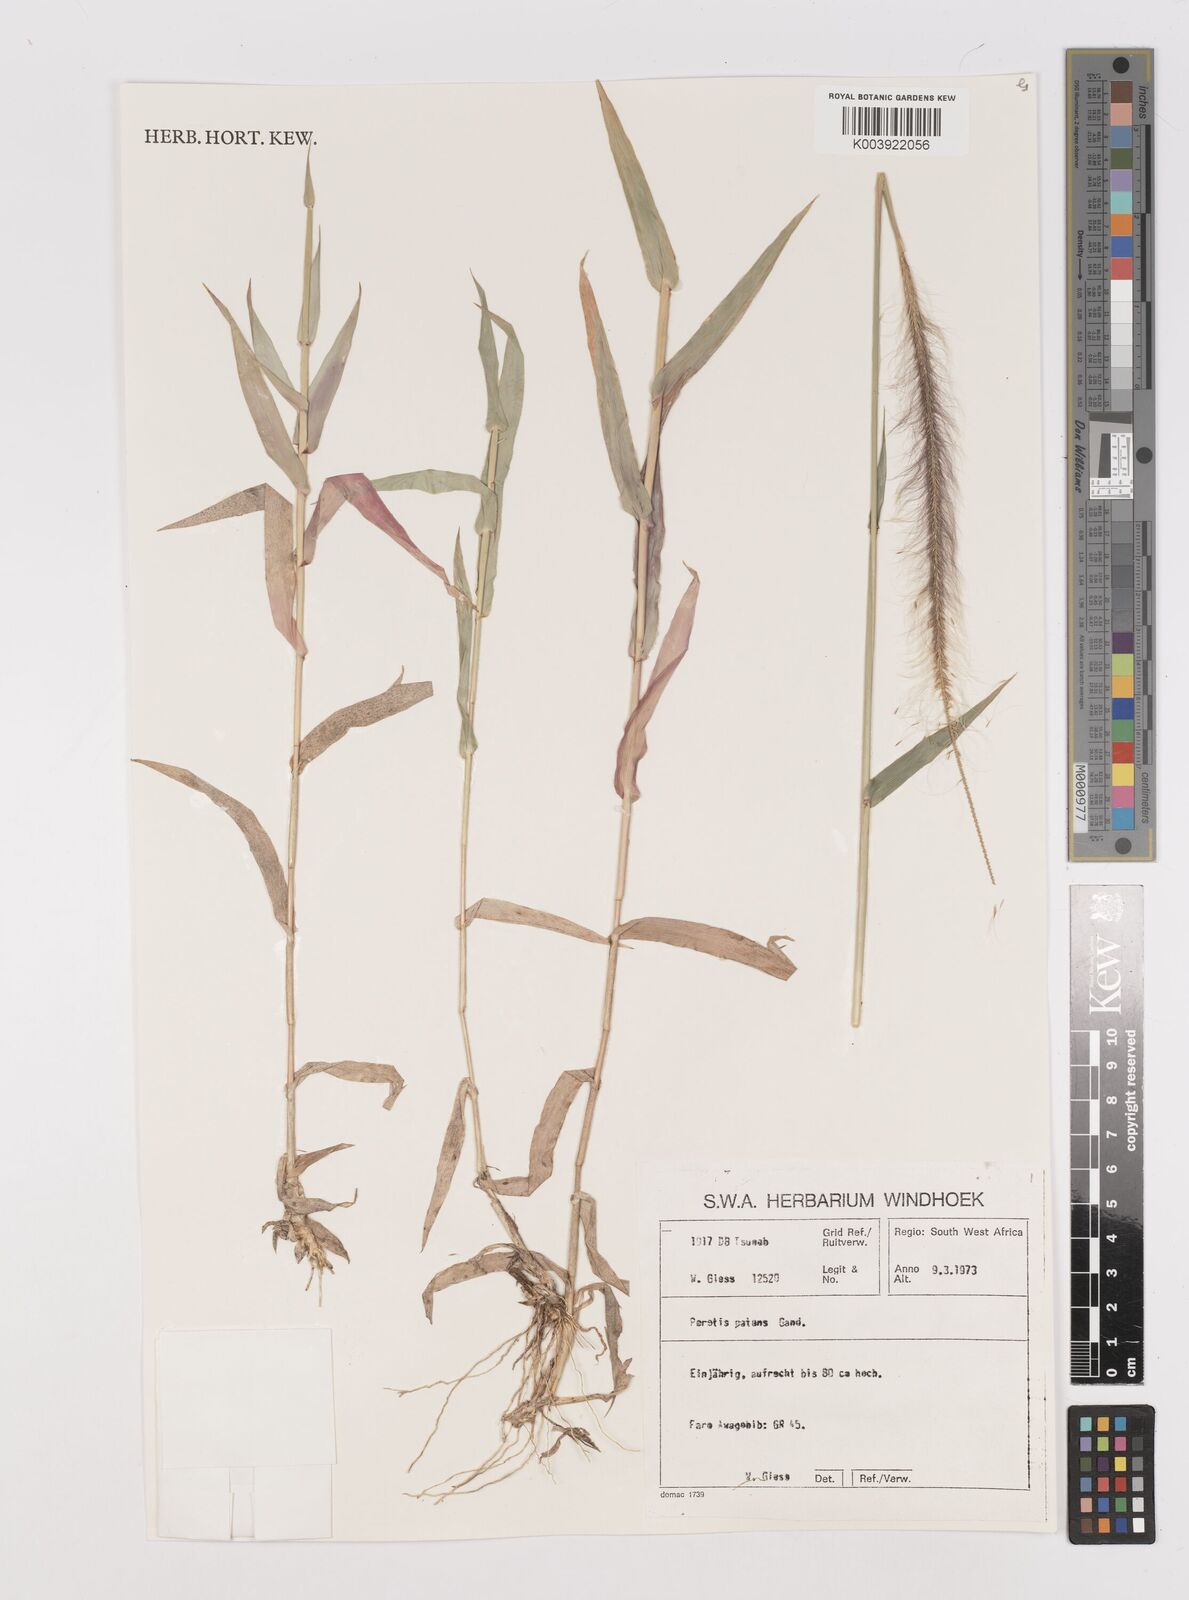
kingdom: Plantae
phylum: Tracheophyta
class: Liliopsida
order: Poales
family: Poaceae
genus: Perotis
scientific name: Perotis patens
